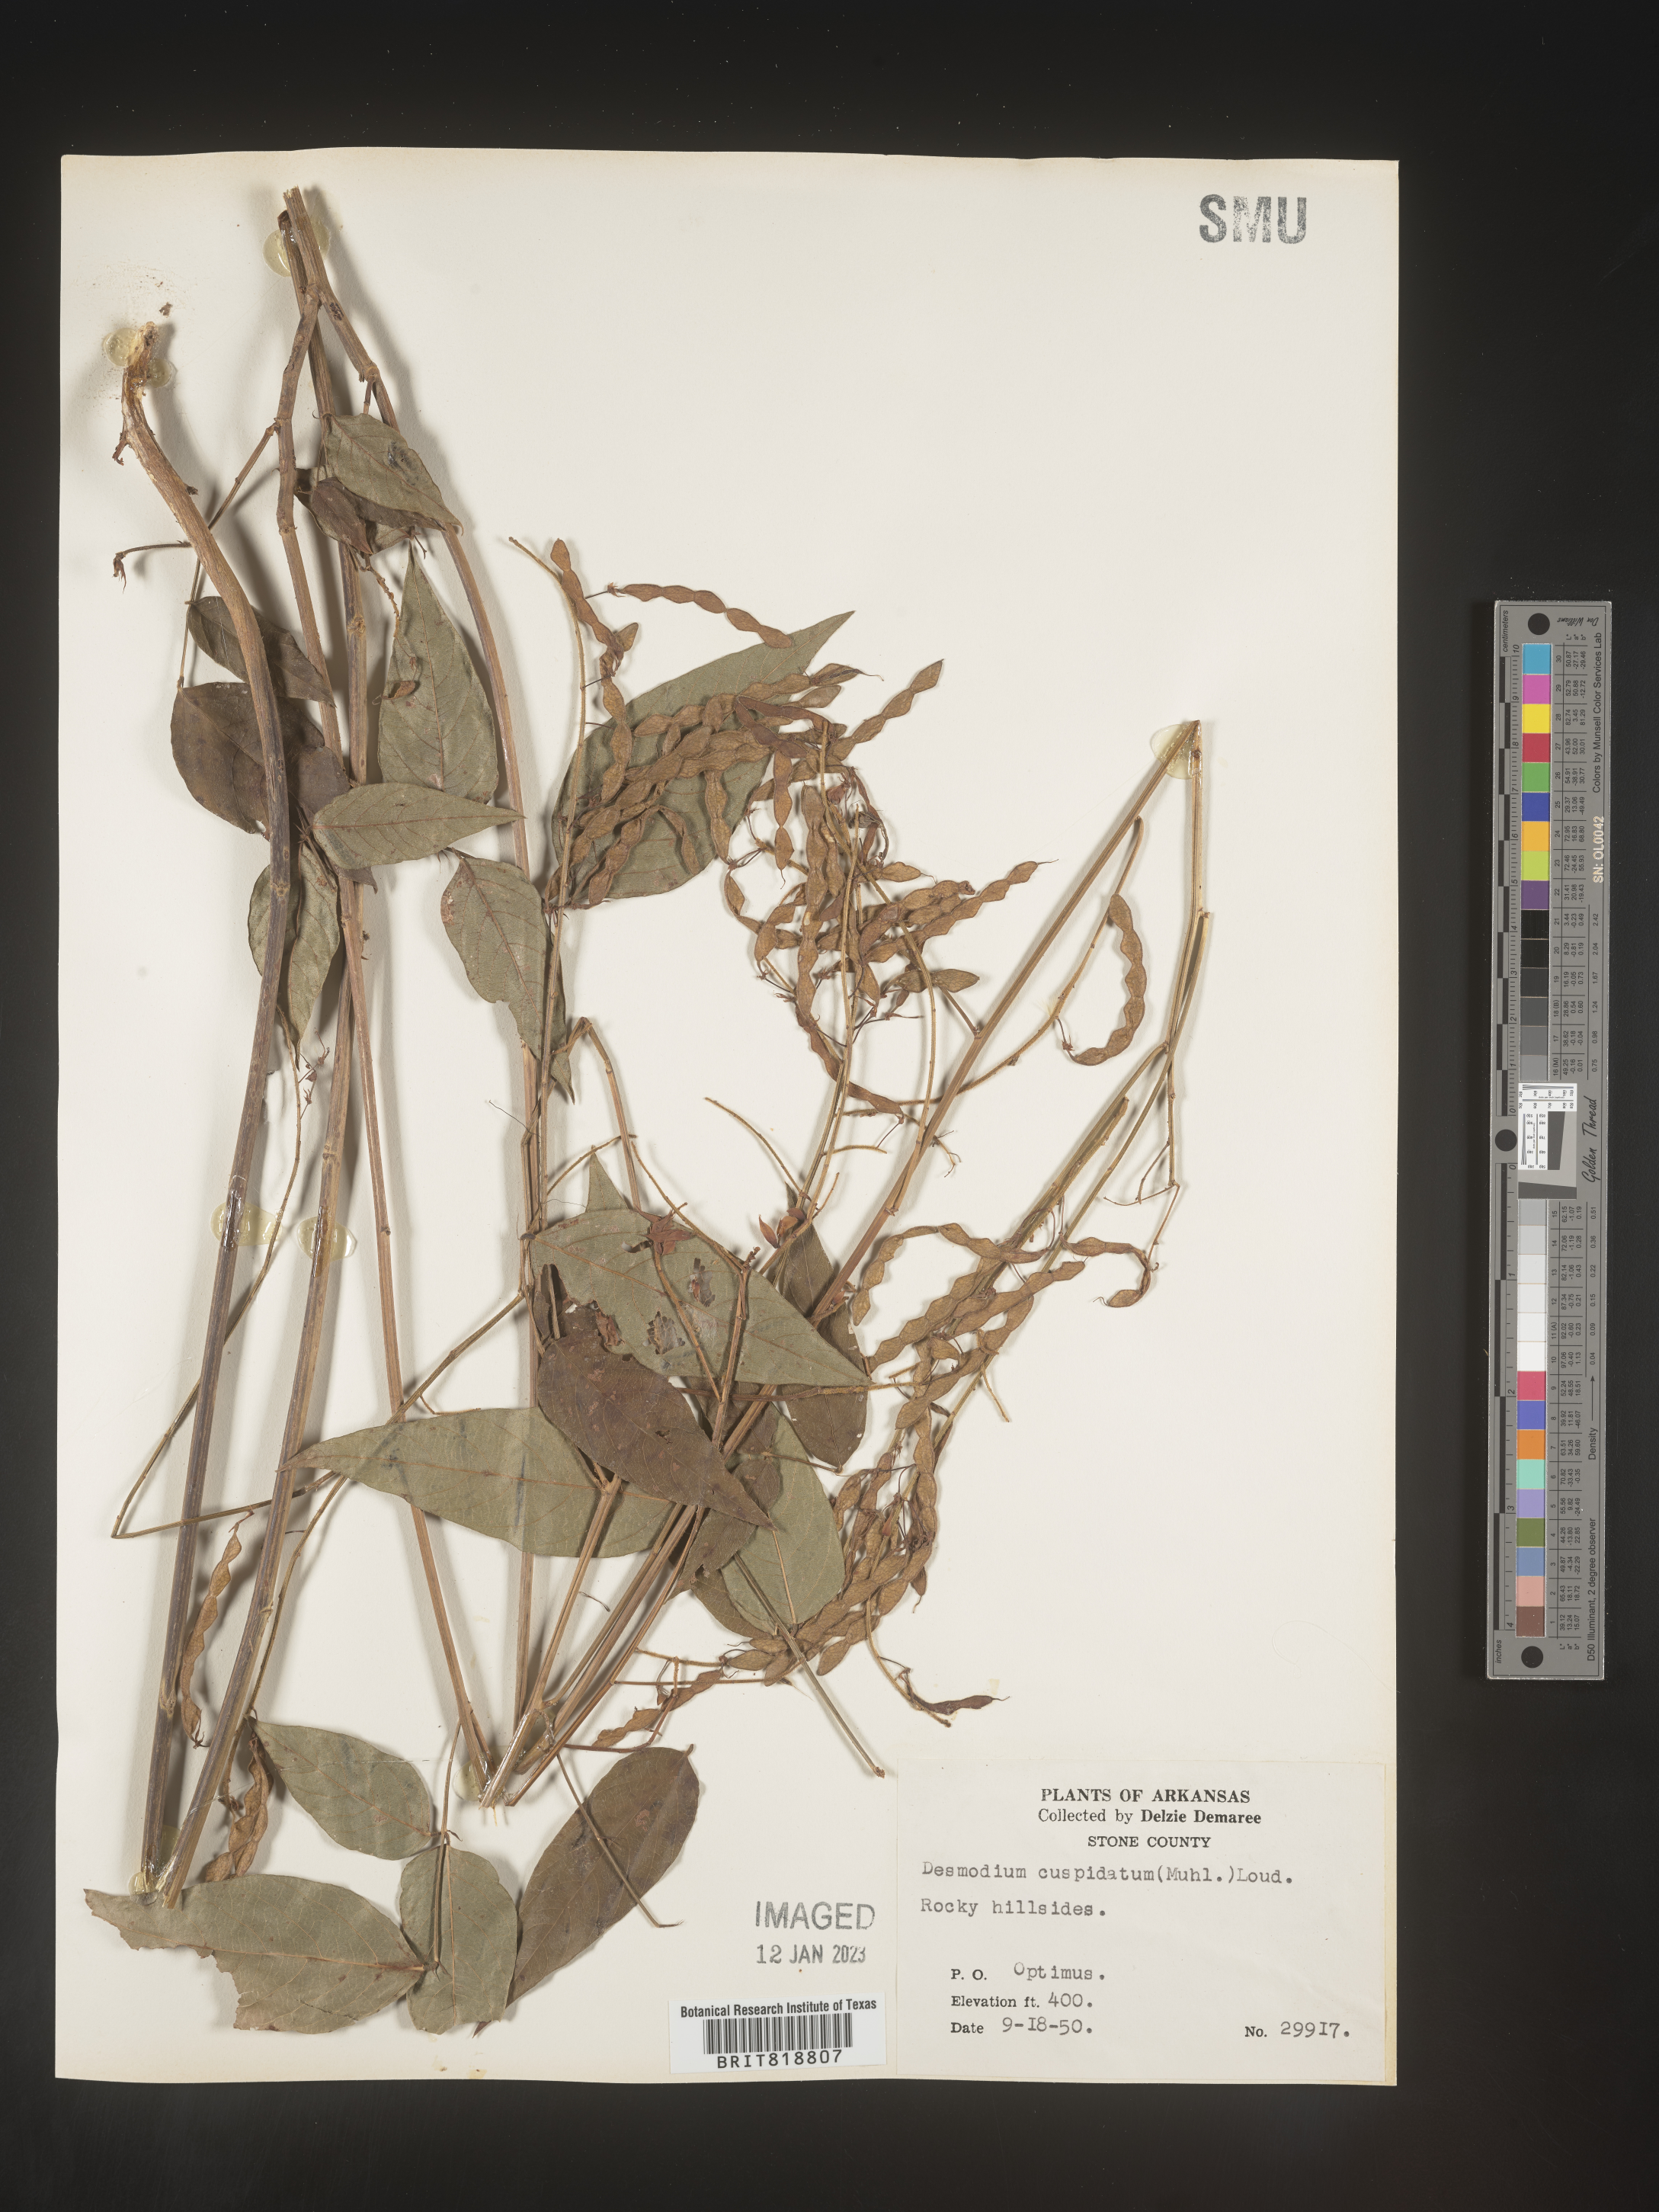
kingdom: Plantae
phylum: Tracheophyta
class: Magnoliopsida
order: Fabales
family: Fabaceae
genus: Desmodium
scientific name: Desmodium cuspidatum
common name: Big tick trefoil
